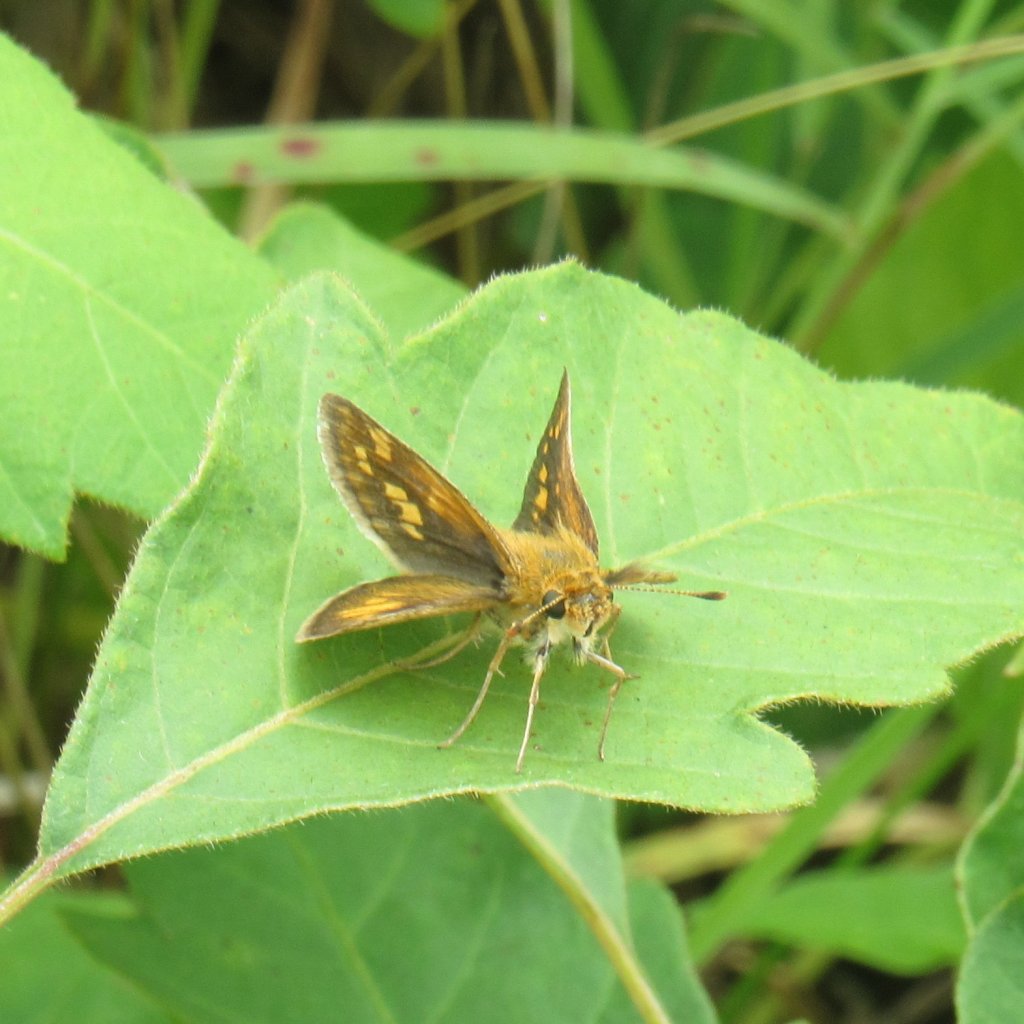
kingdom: Animalia
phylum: Arthropoda
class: Insecta
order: Lepidoptera
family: Hesperiidae
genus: Polites
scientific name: Polites coras
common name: Peck's Skipper
